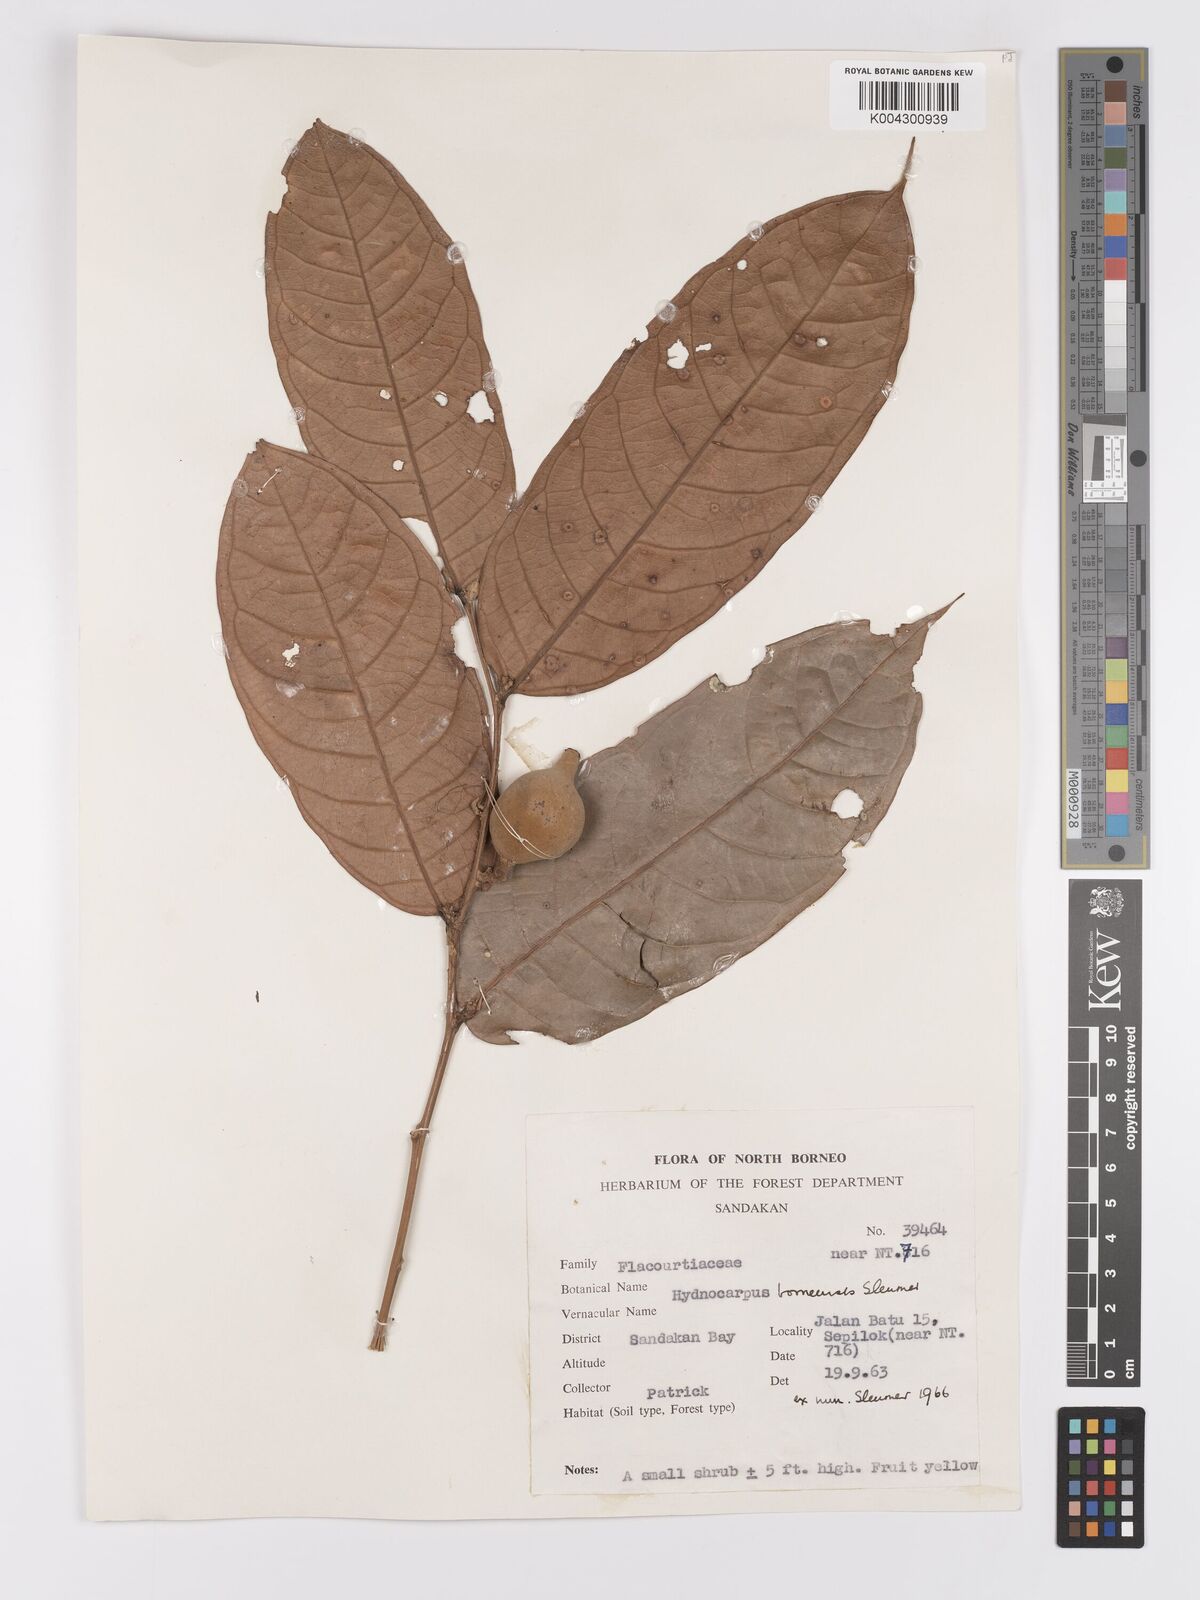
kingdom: Plantae
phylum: Tracheophyta
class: Magnoliopsida
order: Malpighiales
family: Achariaceae
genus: Hydnocarpus
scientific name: Hydnocarpus borneensis
